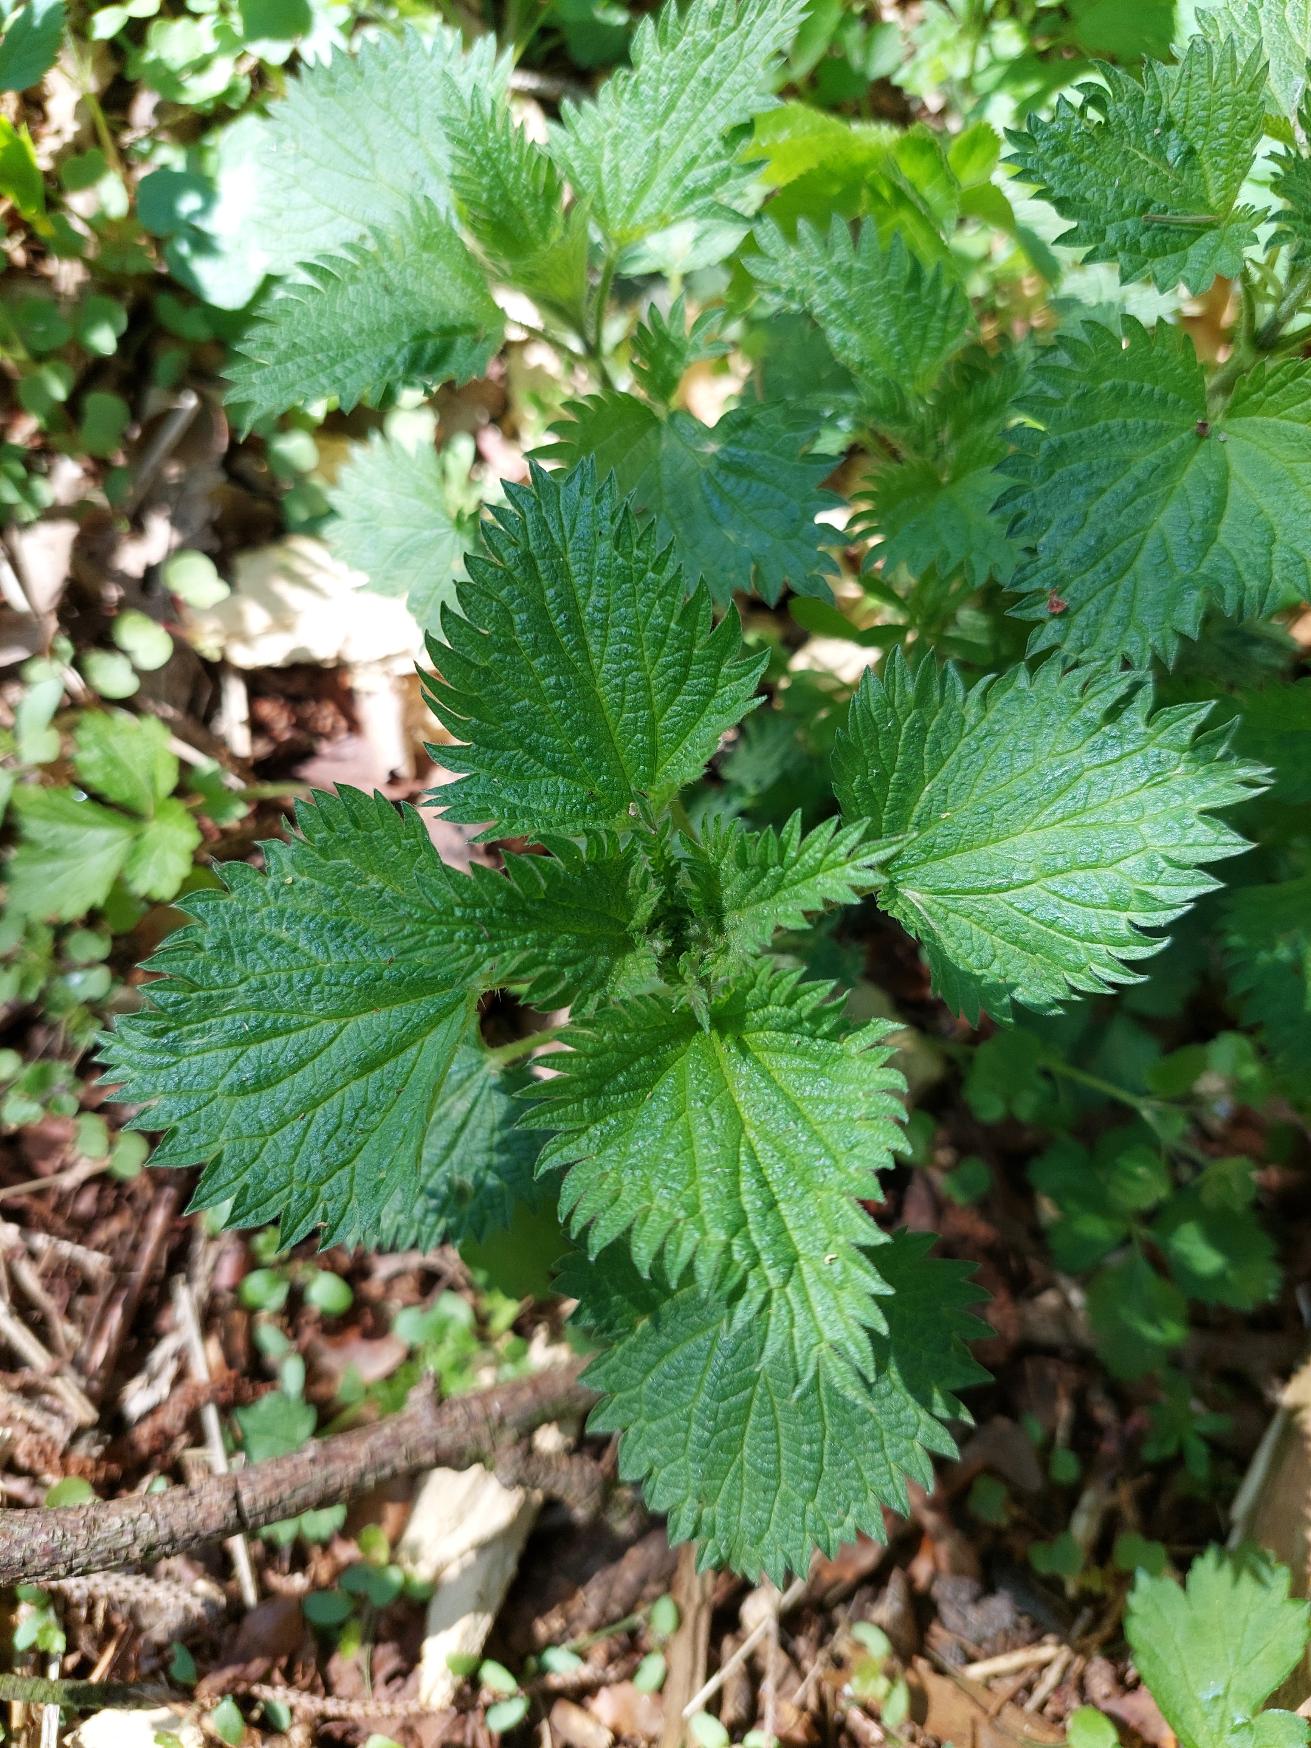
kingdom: Plantae
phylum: Tracheophyta
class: Magnoliopsida
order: Rosales
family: Urticaceae
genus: Urtica
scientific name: Urtica dioica
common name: Stor nælde
